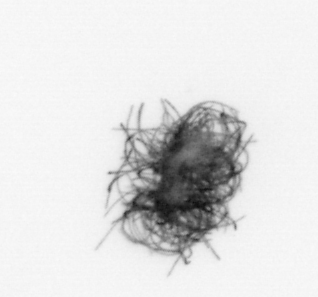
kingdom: Bacteria
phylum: Cyanobacteria
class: Cyanobacteriia
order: Cyanobacteriales
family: Microcoleaceae
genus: Trichodesmium
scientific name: Trichodesmium
